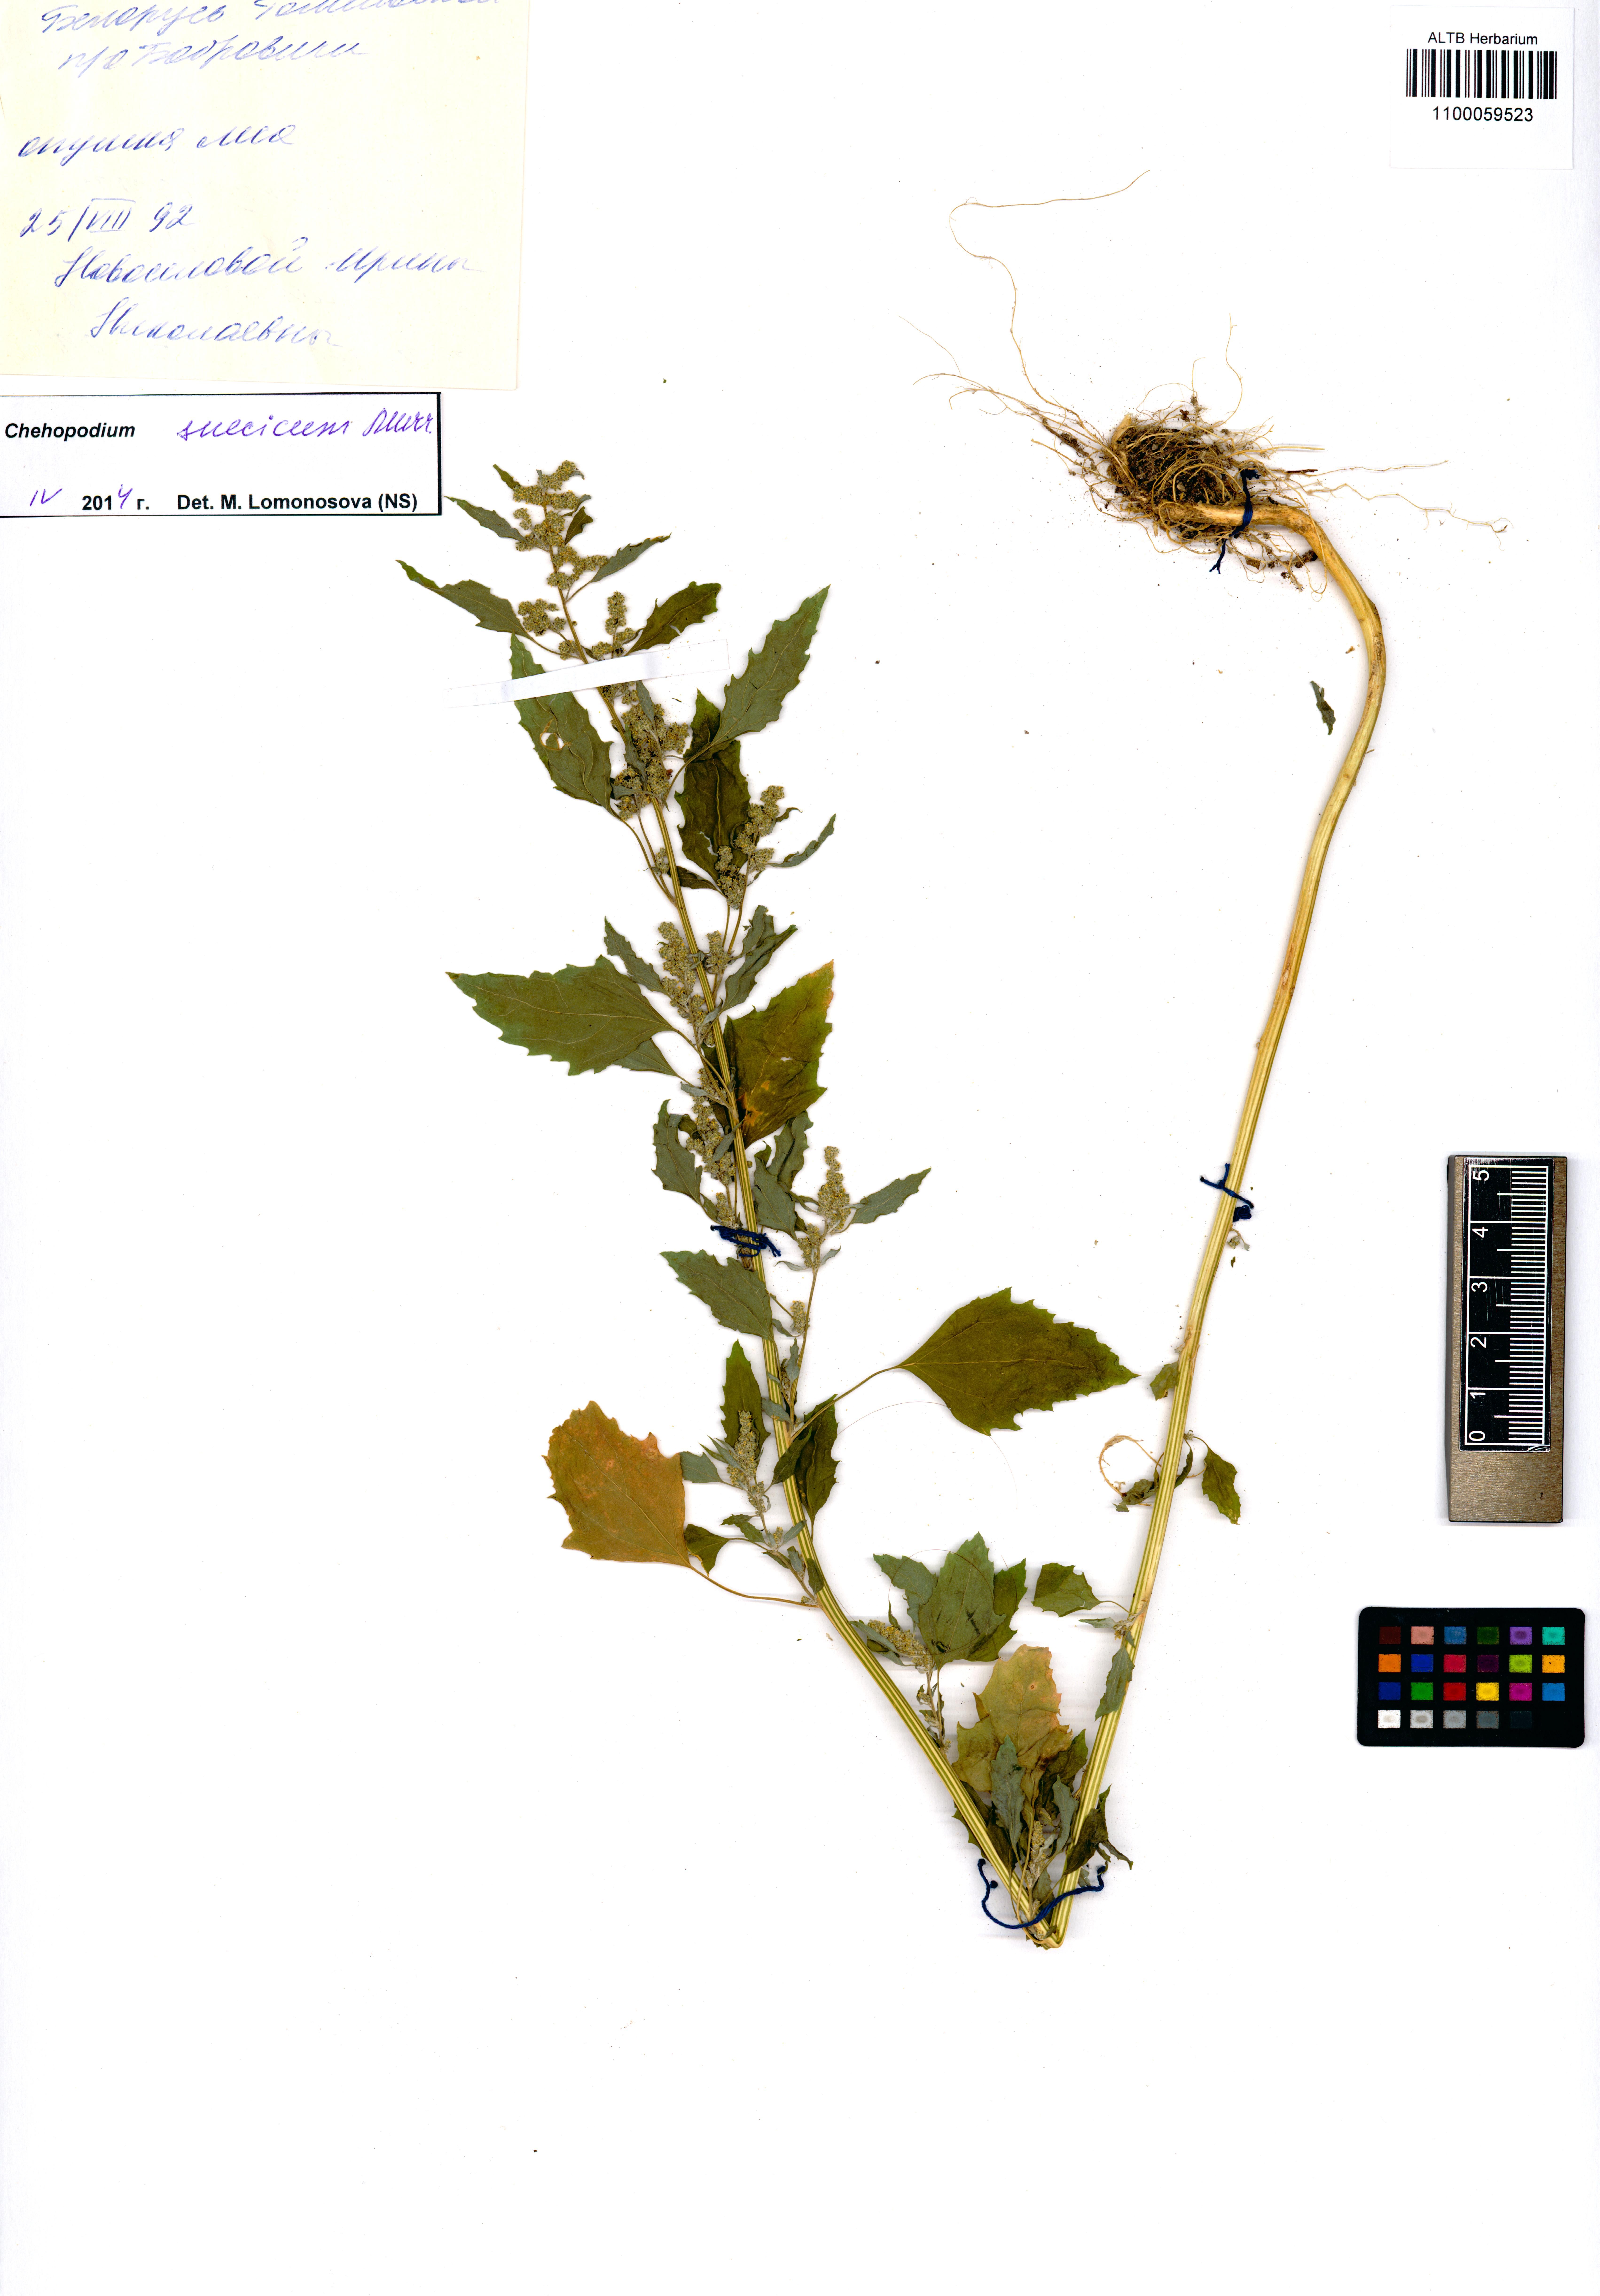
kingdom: Plantae
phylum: Tracheophyta
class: Magnoliopsida
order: Caryophyllales
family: Amaranthaceae
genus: Chenopodium
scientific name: Chenopodium album
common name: Fat-hen
